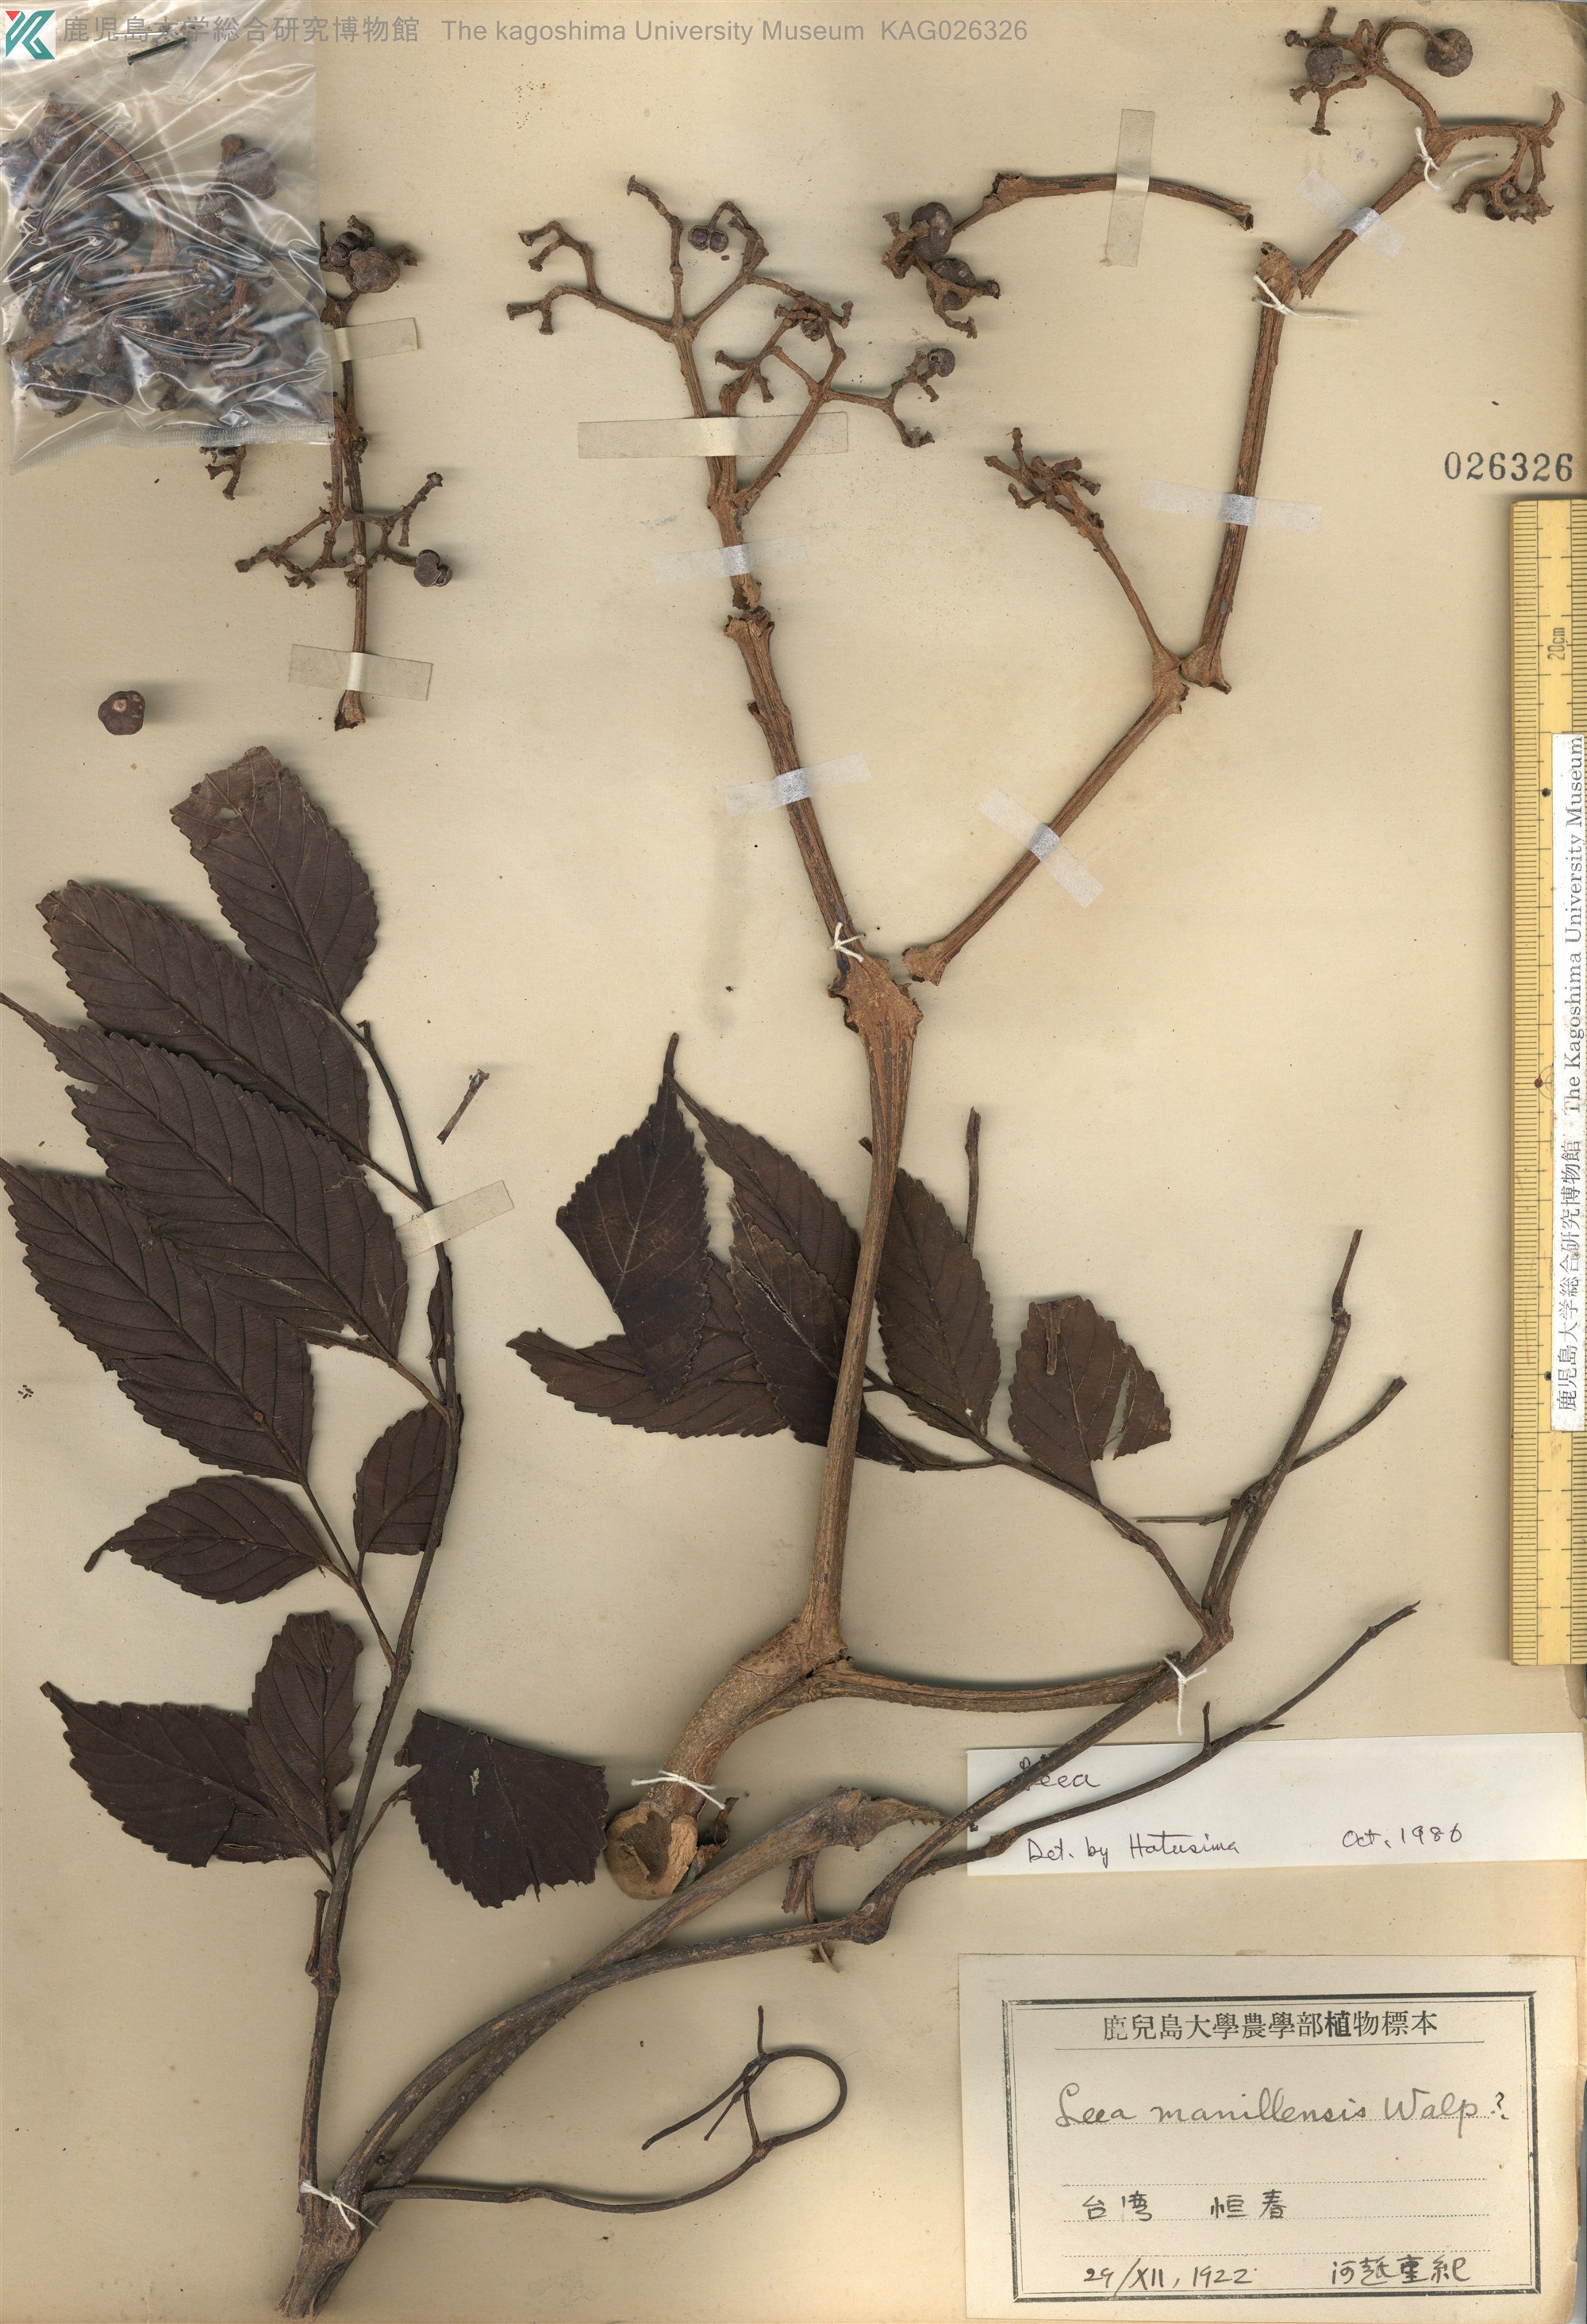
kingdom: Plantae
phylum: Tracheophyta
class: Magnoliopsida
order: Vitales
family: Vitaceae
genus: Leea
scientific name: Leea guineensis
